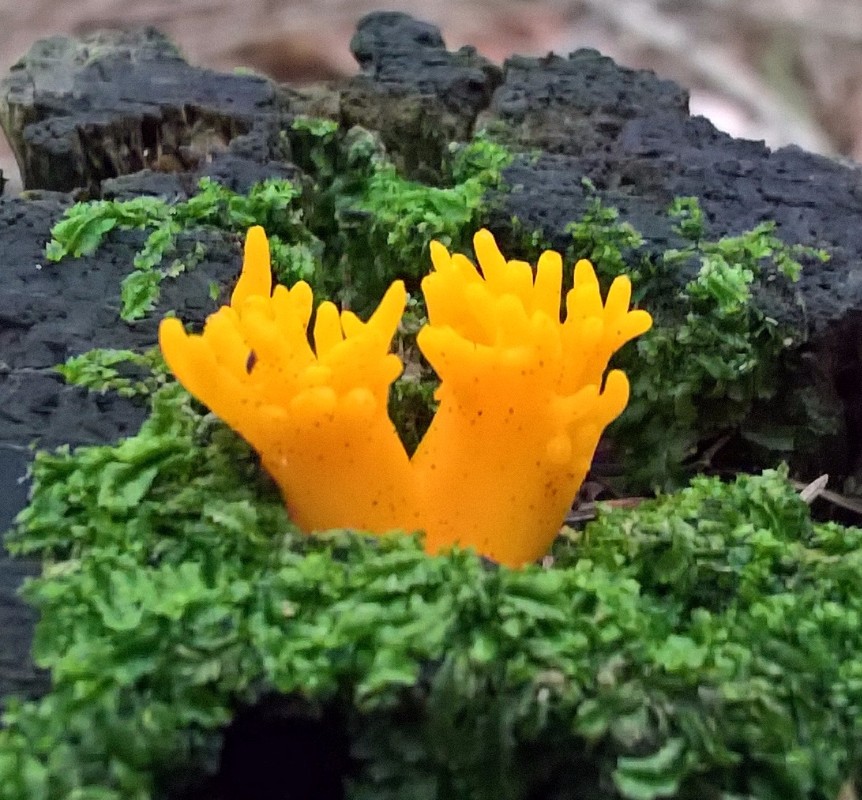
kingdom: Fungi
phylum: Basidiomycota
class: Dacrymycetes
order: Dacrymycetales
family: Dacrymycetaceae
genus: Calocera
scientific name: Calocera viscosa
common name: almindelig guldgaffel
